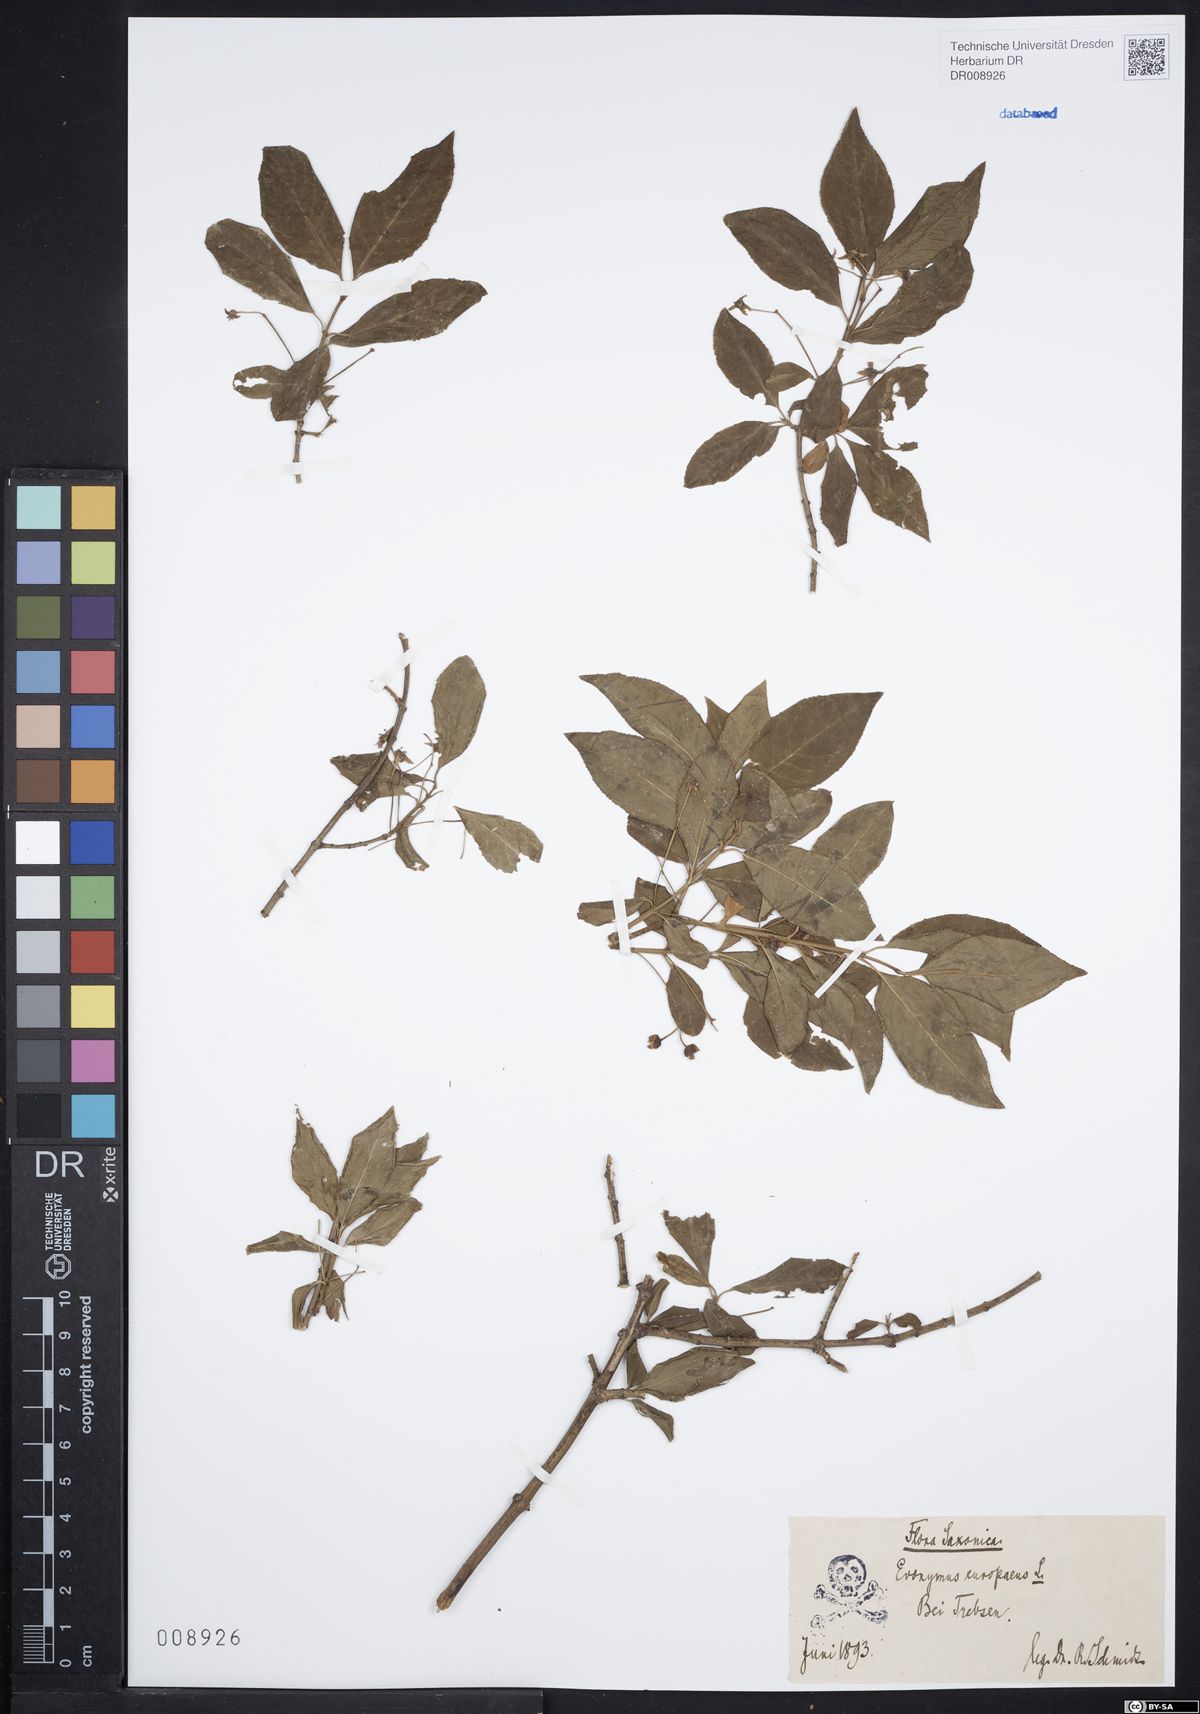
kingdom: Plantae
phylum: Tracheophyta
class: Magnoliopsida
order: Celastrales
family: Celastraceae
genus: Euonymus
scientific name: Euonymus europaeus
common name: Spindle
